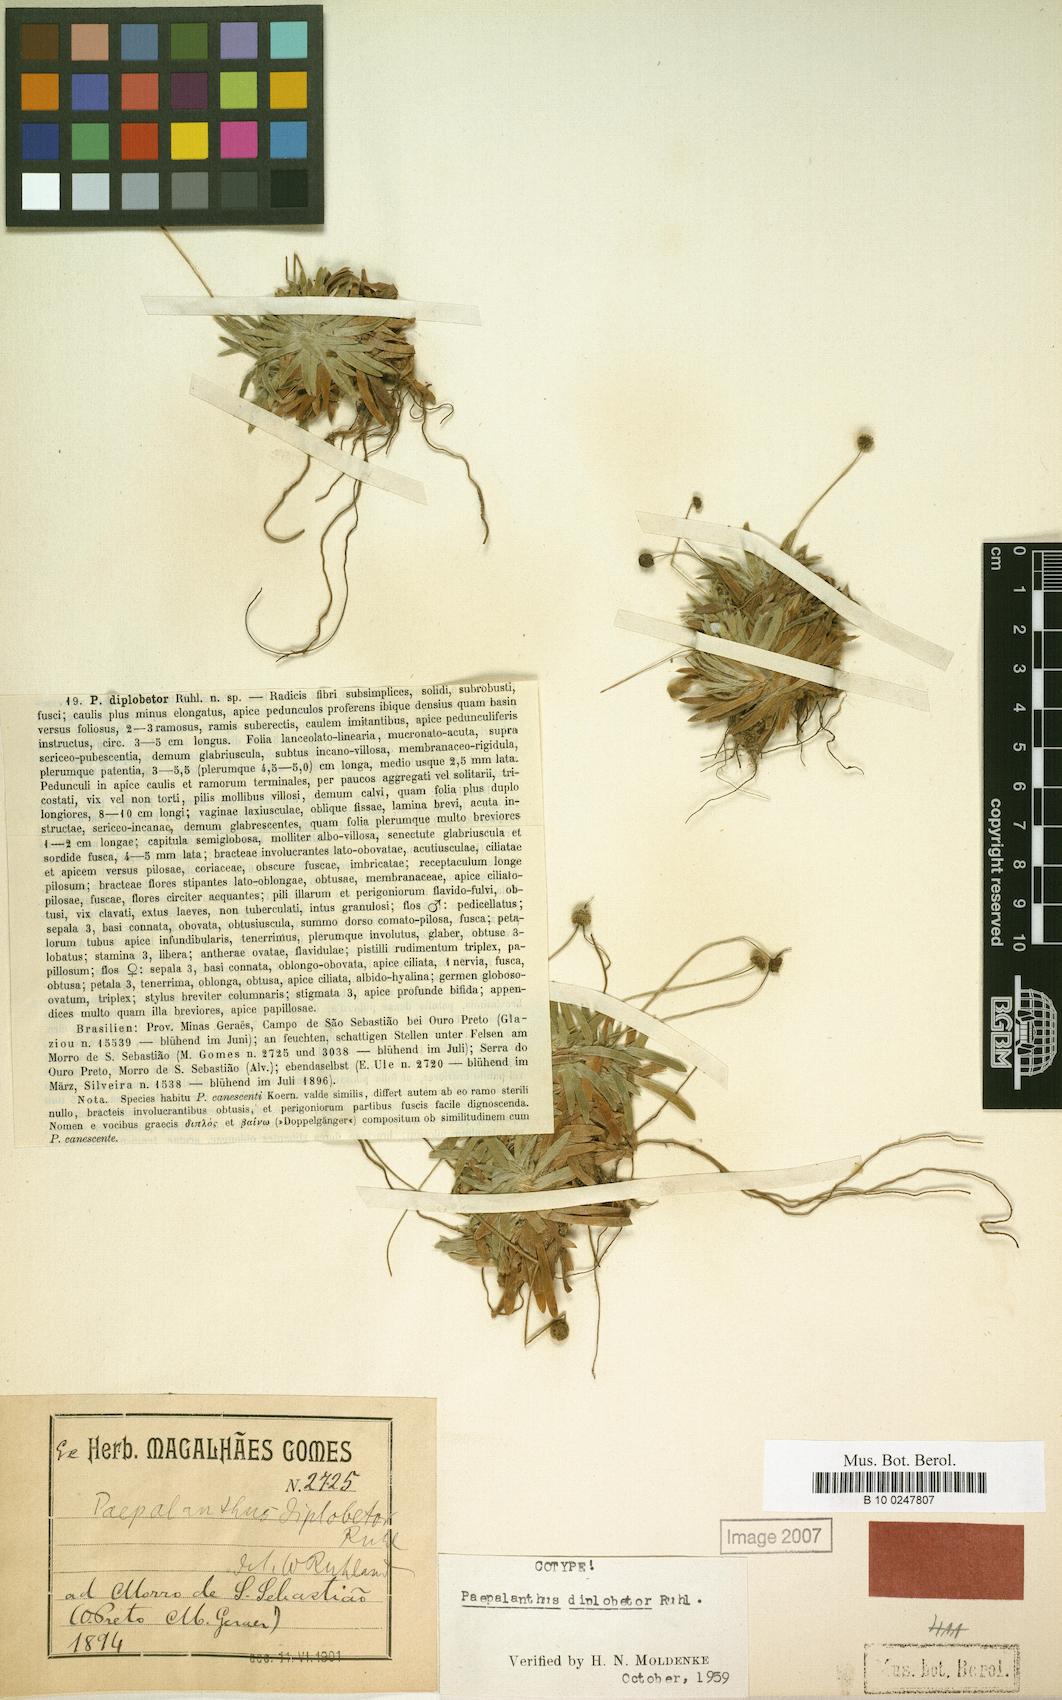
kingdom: Plantae
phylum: Tracheophyta
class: Liliopsida
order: Poales
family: Eriocaulaceae
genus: Paepalanthus
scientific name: Paepalanthus diplobetor
